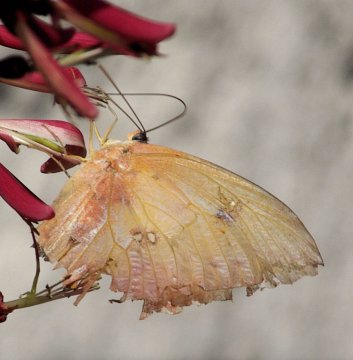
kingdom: Animalia
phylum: Arthropoda
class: Insecta
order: Lepidoptera
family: Pieridae
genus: Phoebis
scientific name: Phoebis philea
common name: Orange-barred Sulphur
